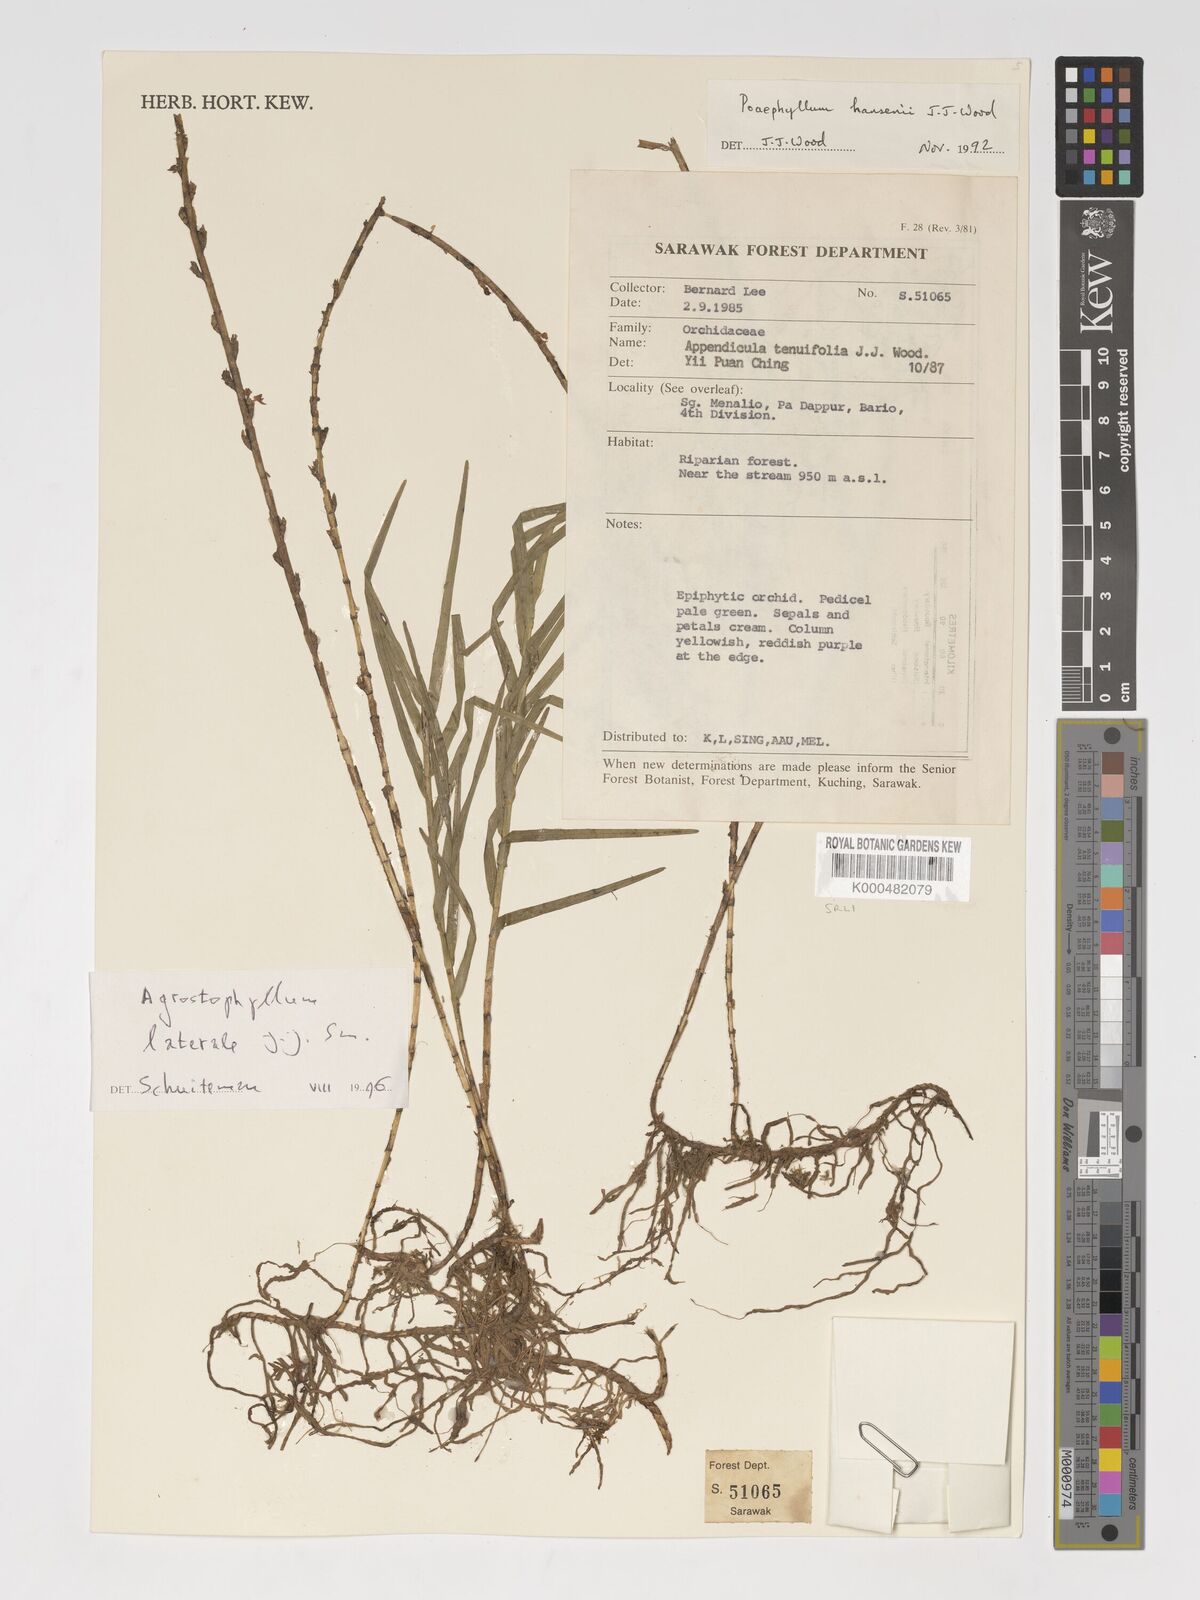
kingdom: Plantae
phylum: Tracheophyta
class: Liliopsida
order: Asparagales
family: Orchidaceae
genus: Agrostophyllum
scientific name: Agrostophyllum laterale
